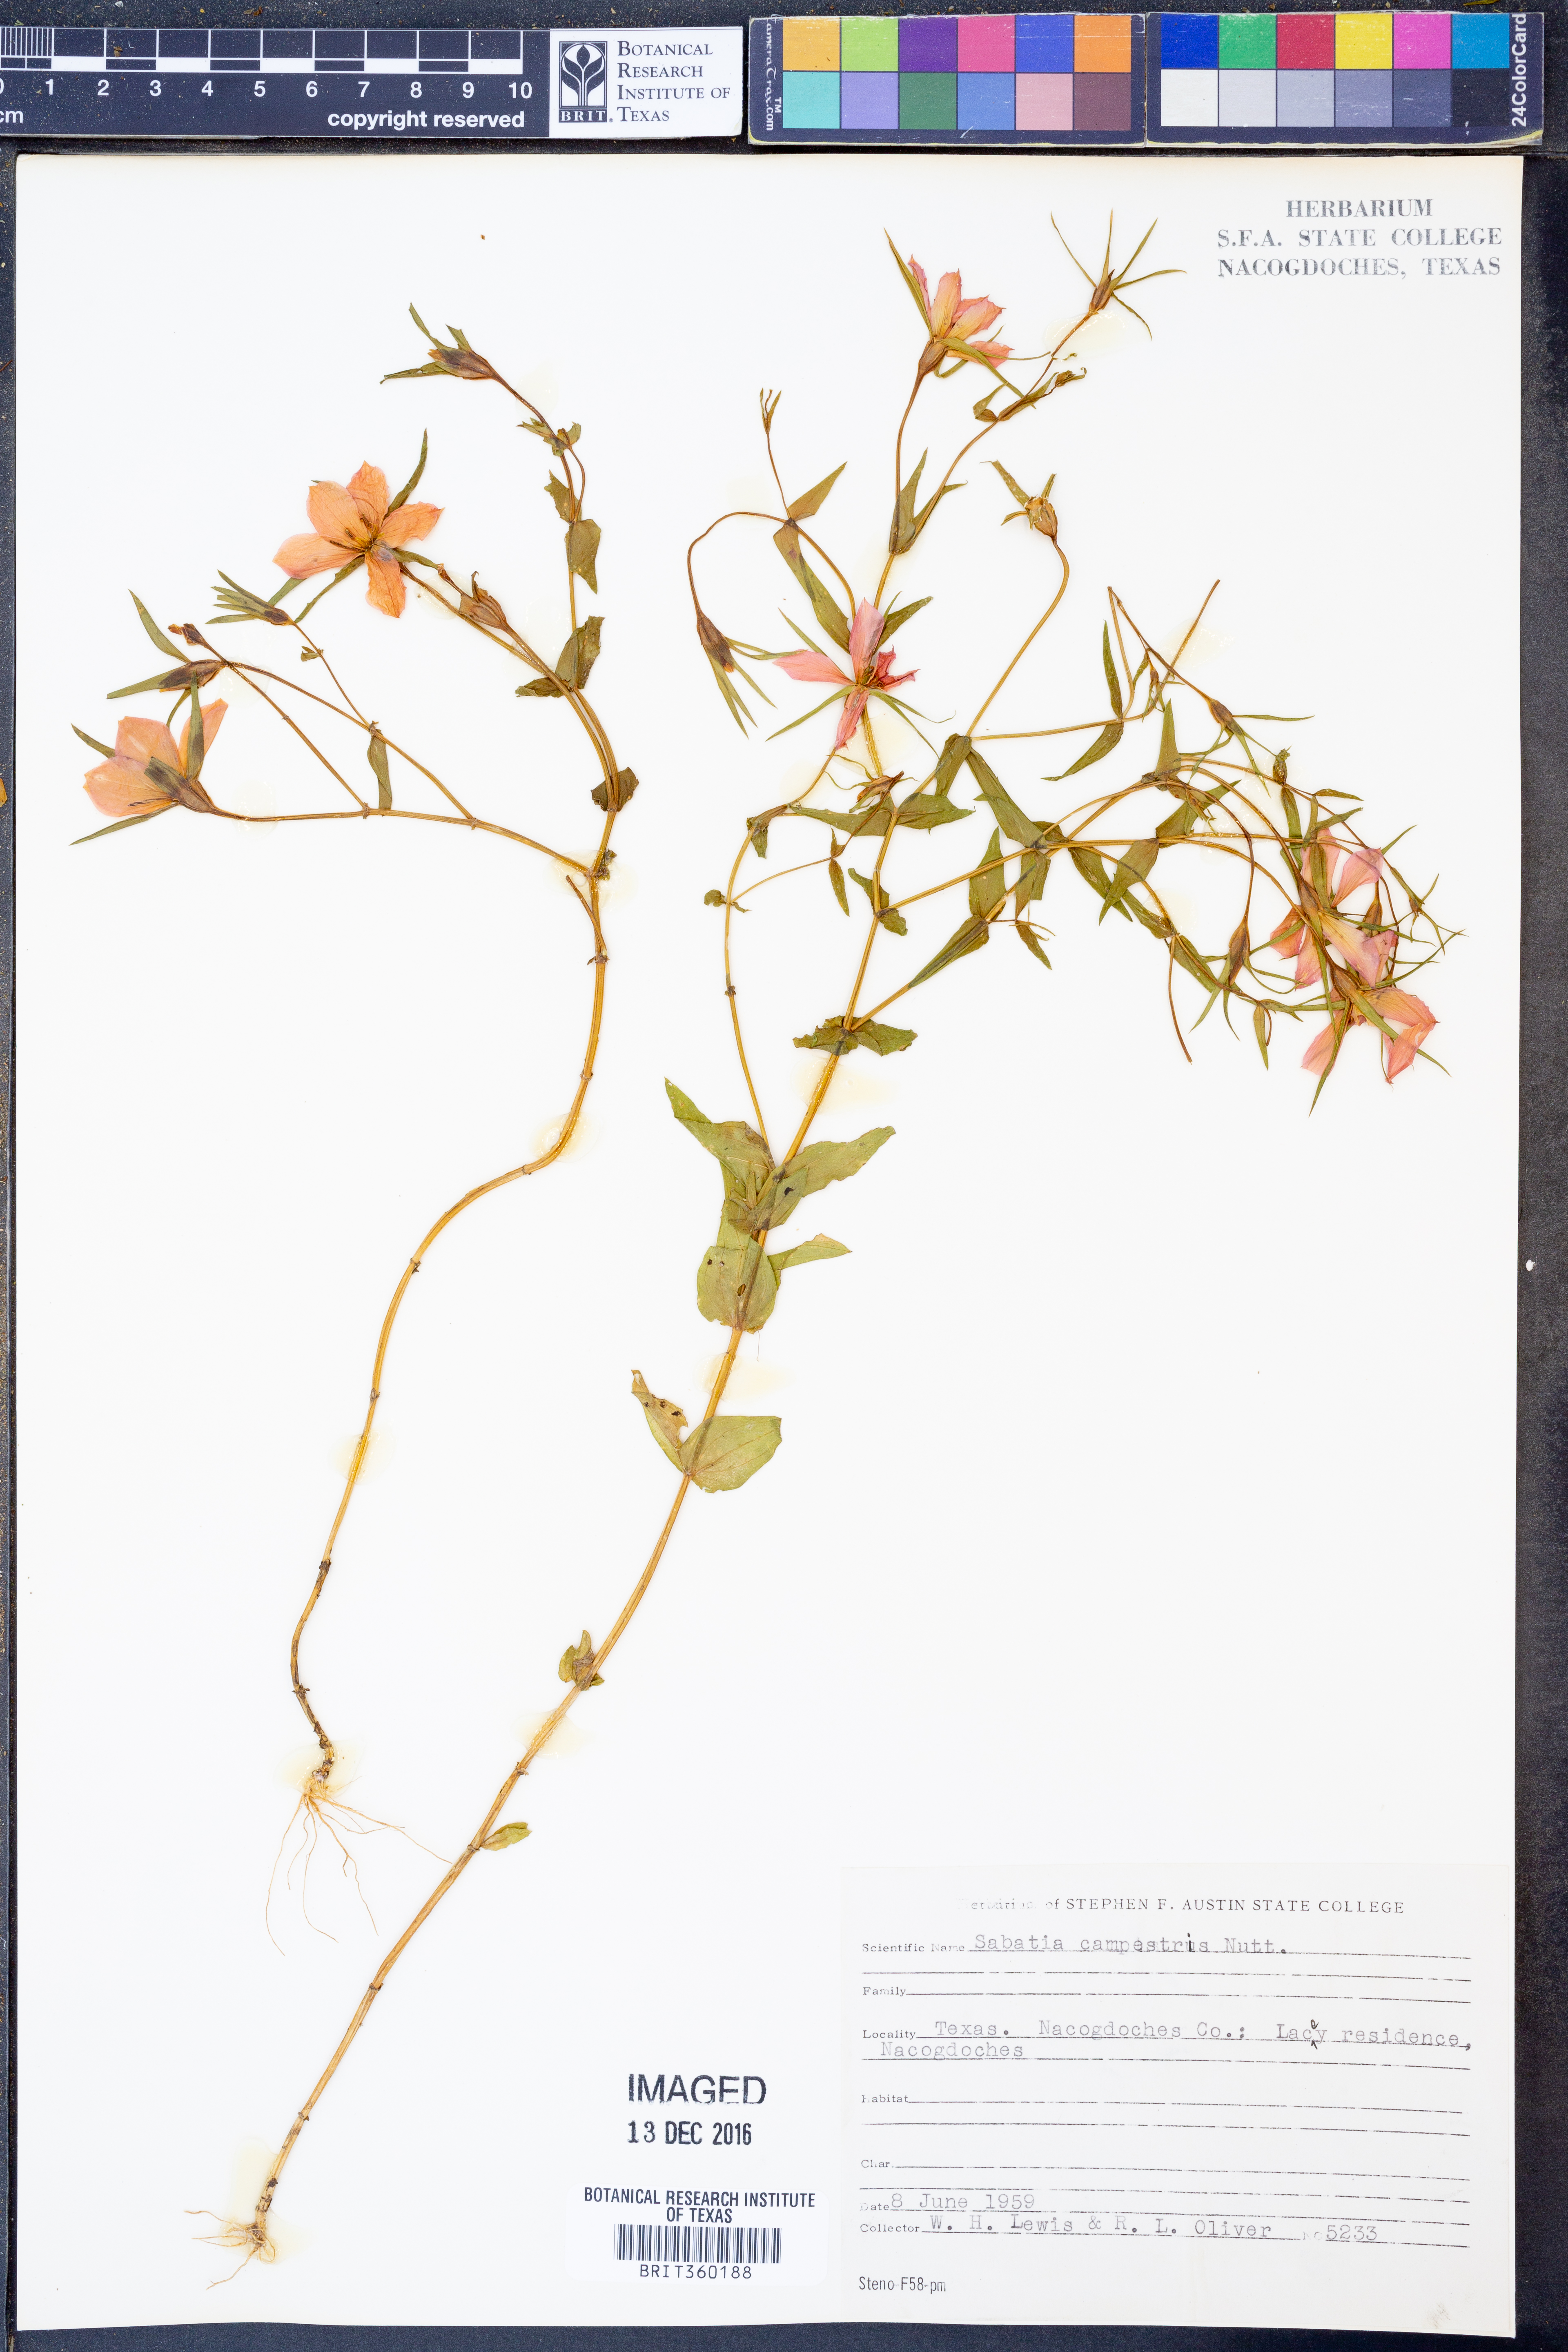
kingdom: Plantae
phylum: Tracheophyta
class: Magnoliopsida
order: Gentianales
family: Gentianaceae
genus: Sabatia
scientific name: Sabatia campestris
